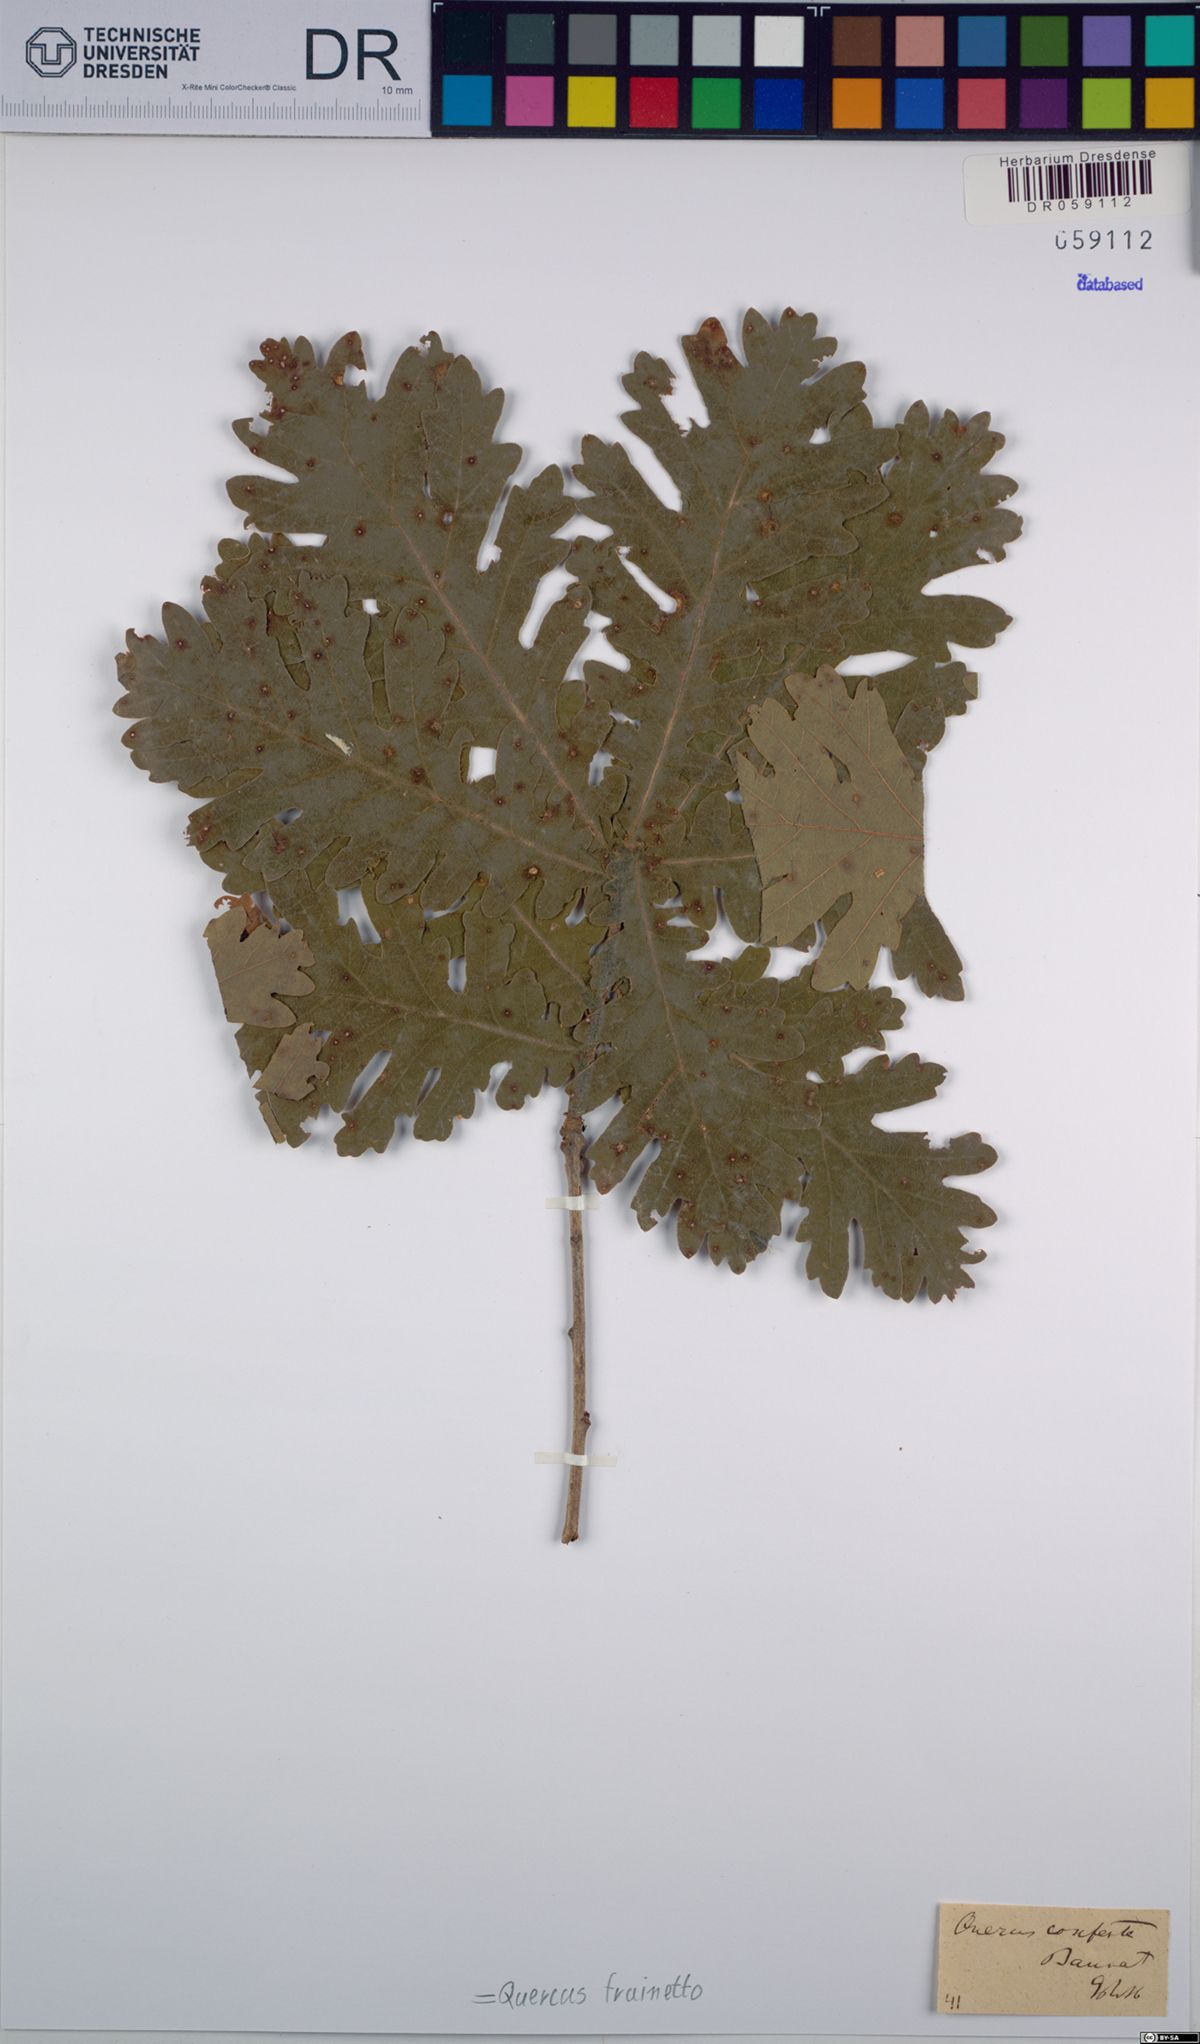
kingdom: Plantae
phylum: Tracheophyta
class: Magnoliopsida
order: Fagales
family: Fagaceae
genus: Quercus
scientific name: Quercus conferta
